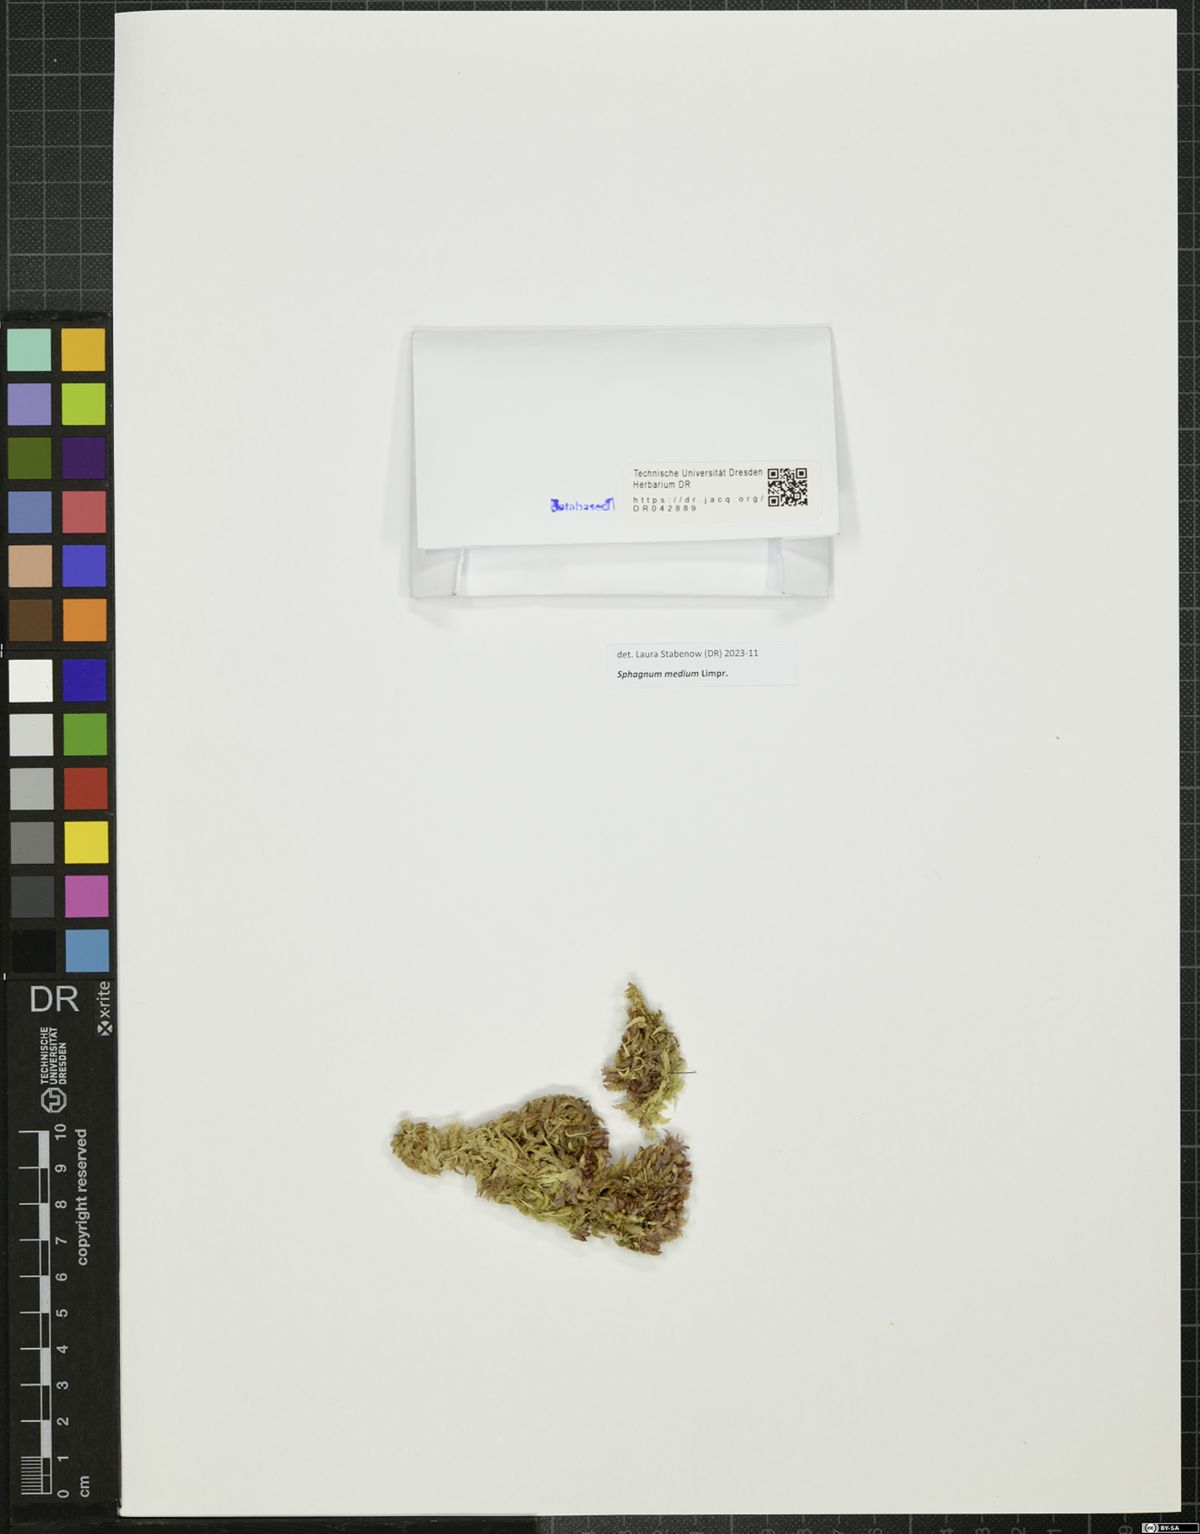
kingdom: Plantae
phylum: Bryophyta
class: Sphagnopsida
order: Sphagnales
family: Sphagnaceae
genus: Sphagnum
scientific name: Sphagnum medium
